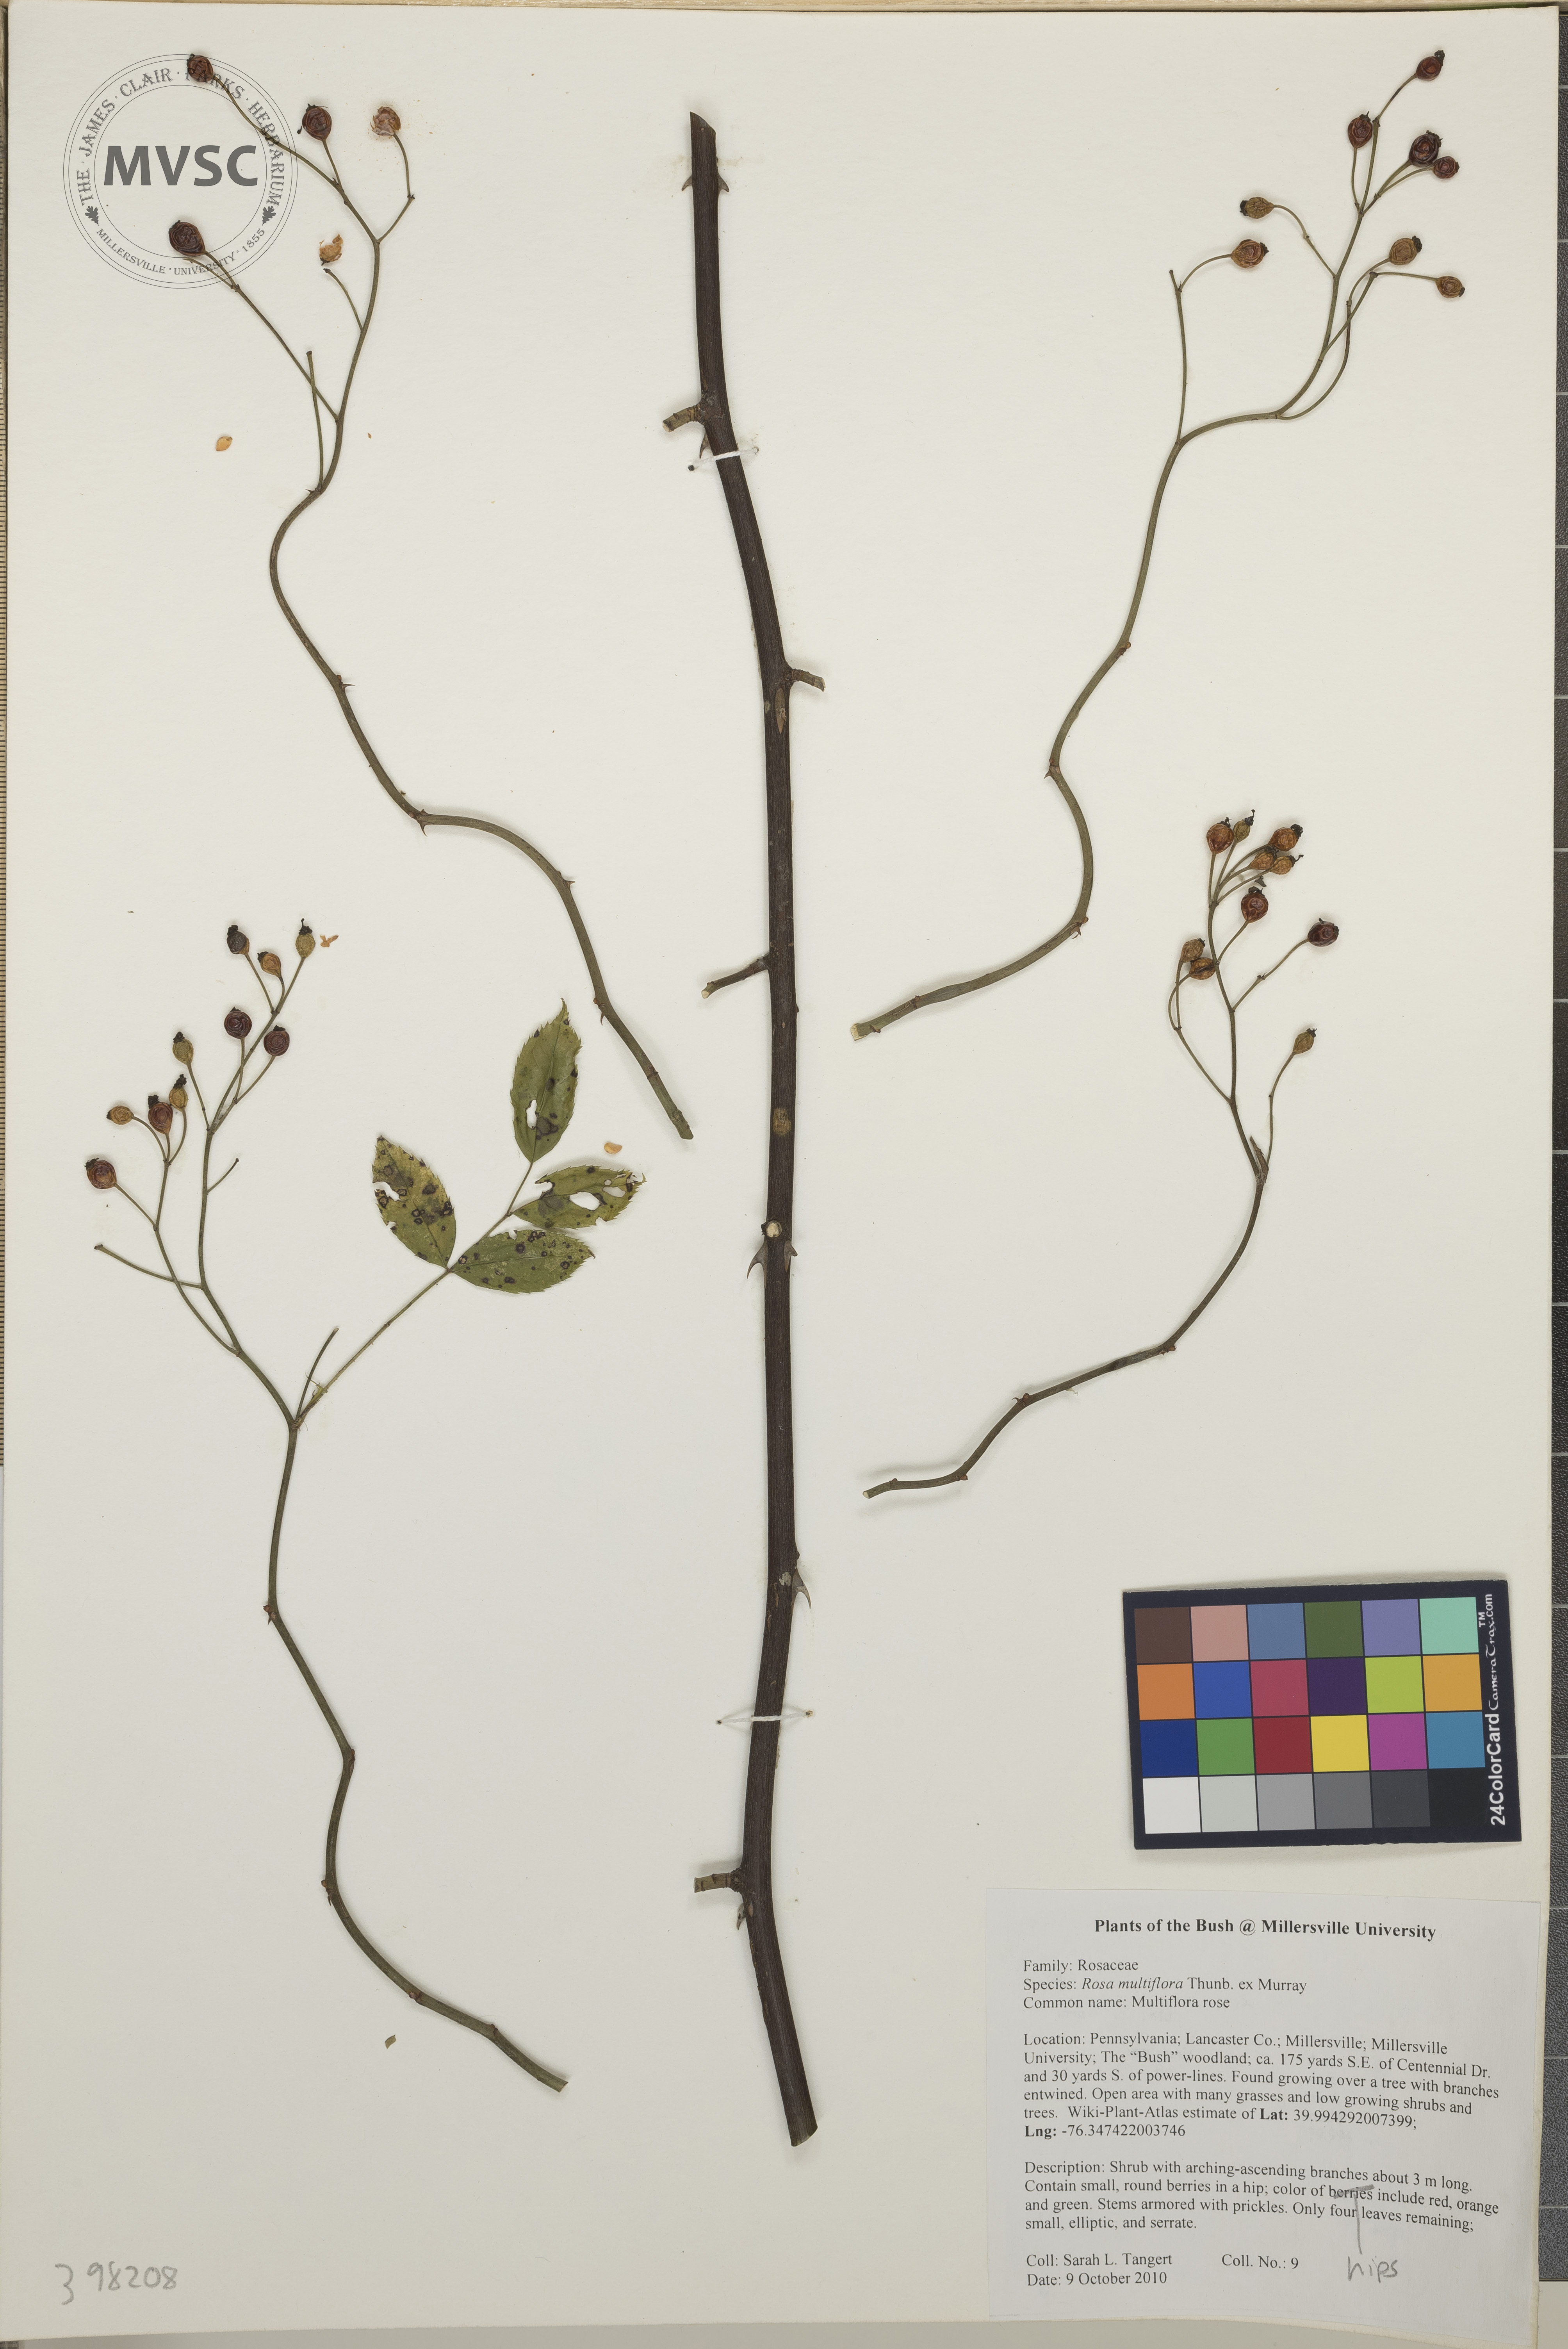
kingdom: Plantae
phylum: Tracheophyta
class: Magnoliopsida
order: Rosales
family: Rosaceae
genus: Rosa
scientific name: Rosa multiflora
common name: Multiflora rose
